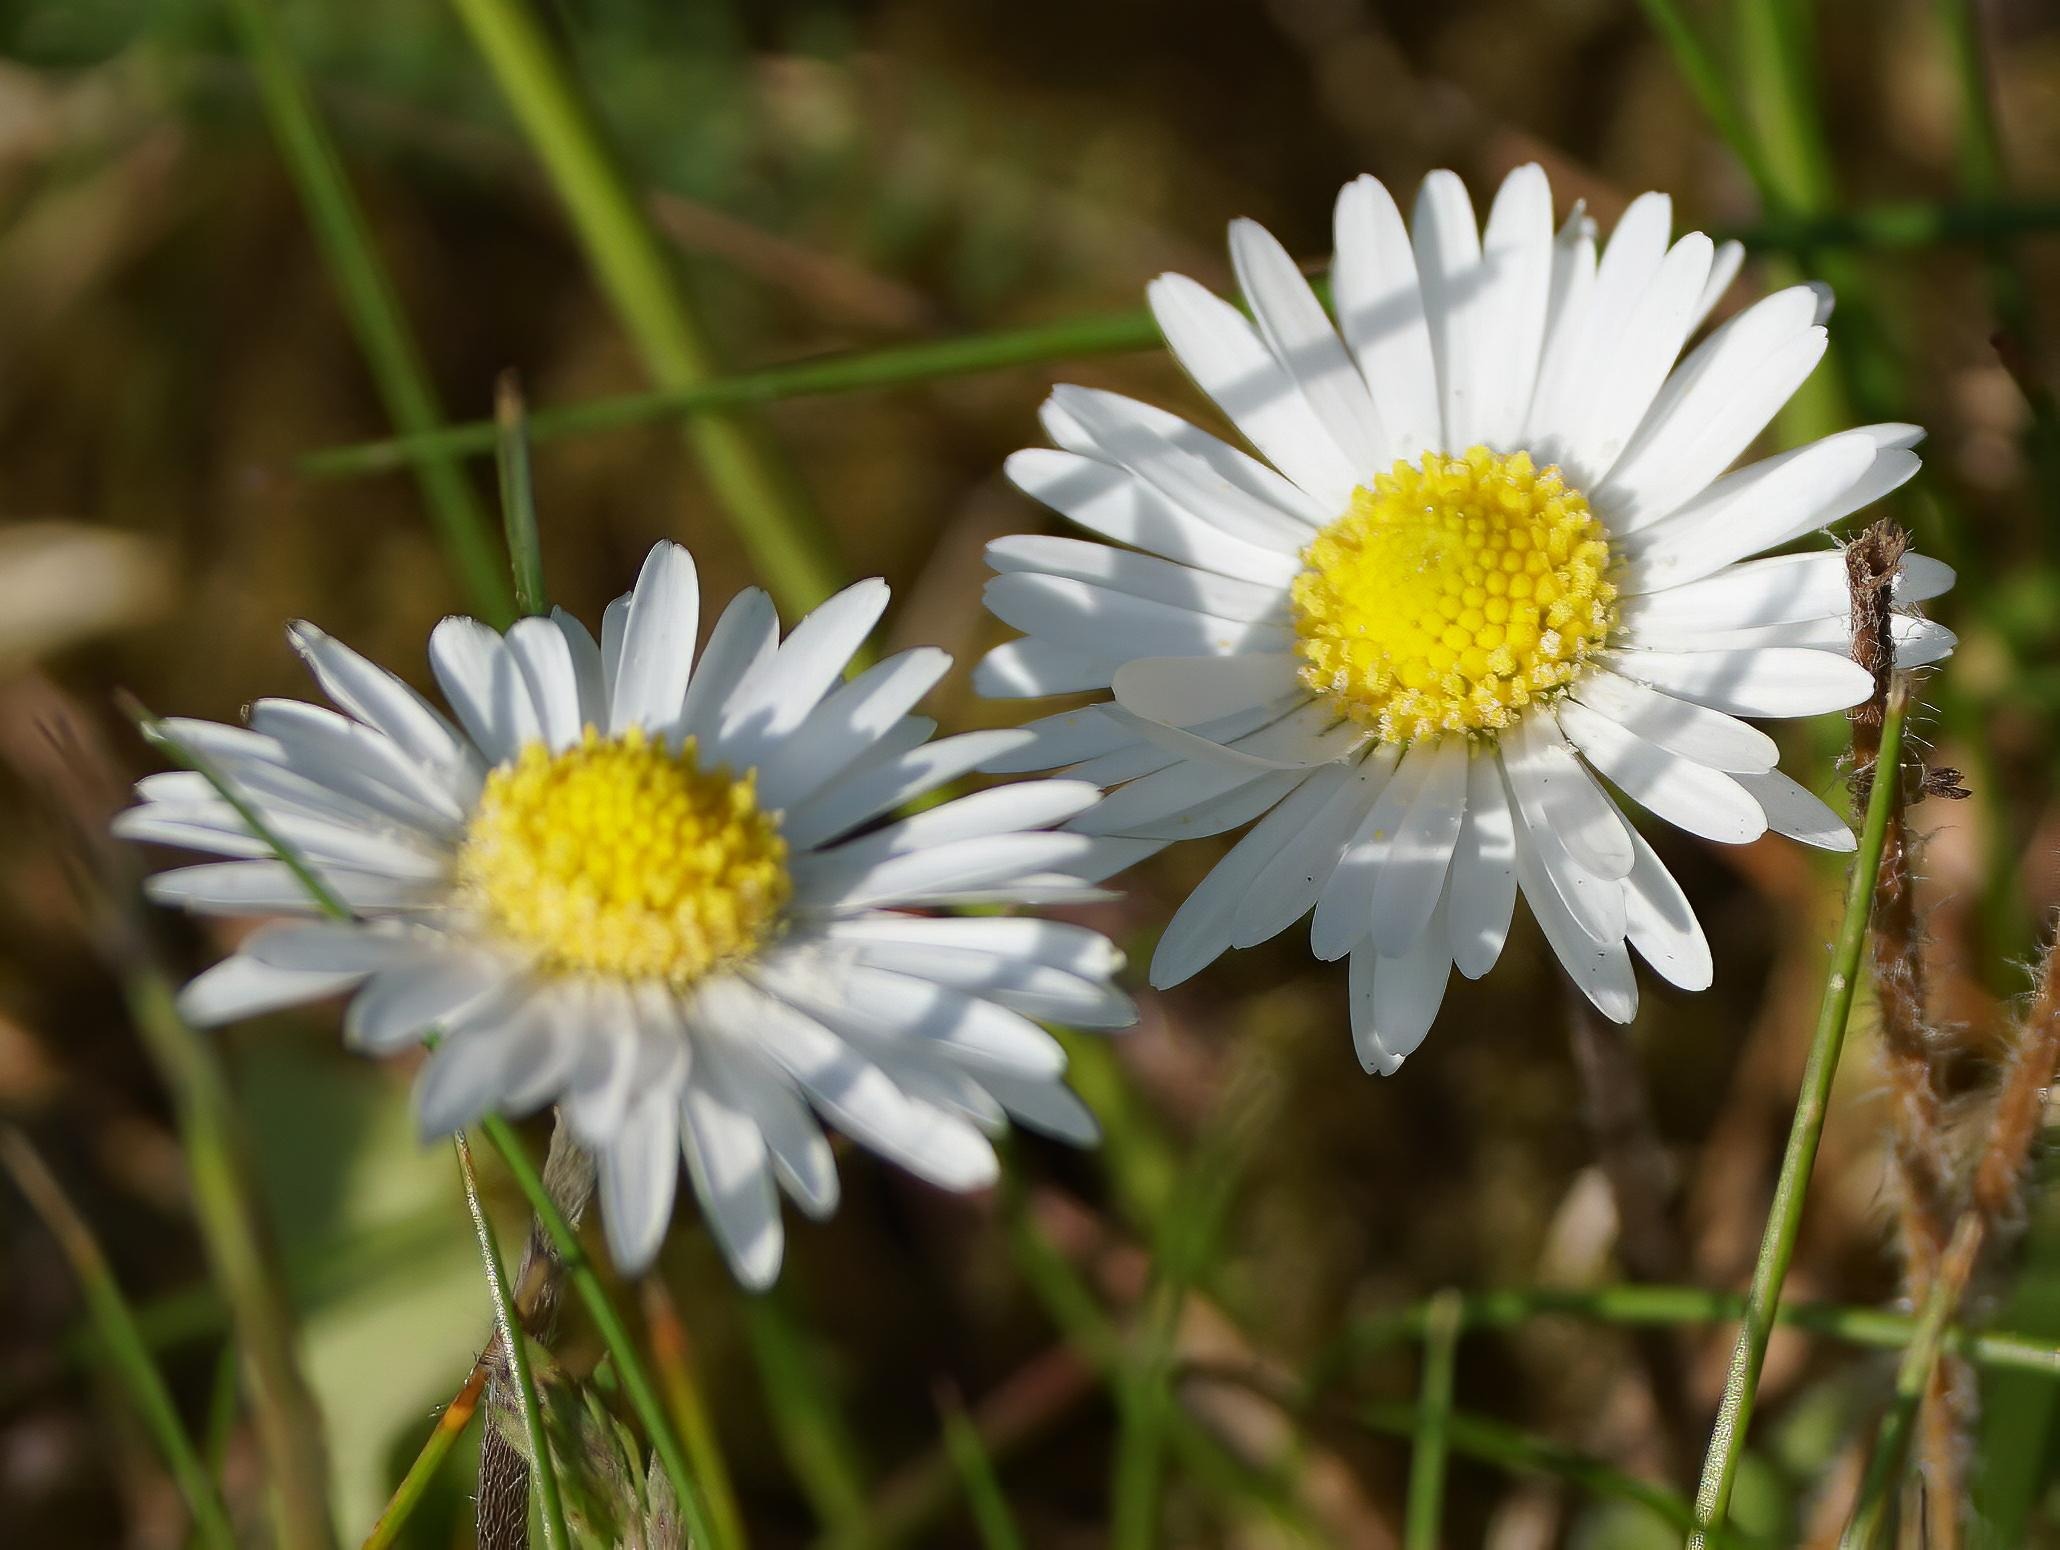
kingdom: Plantae
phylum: Tracheophyta
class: Magnoliopsida
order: Asterales
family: Asteraceae
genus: Bellis
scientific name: Bellis perennis
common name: Tusindfryd
